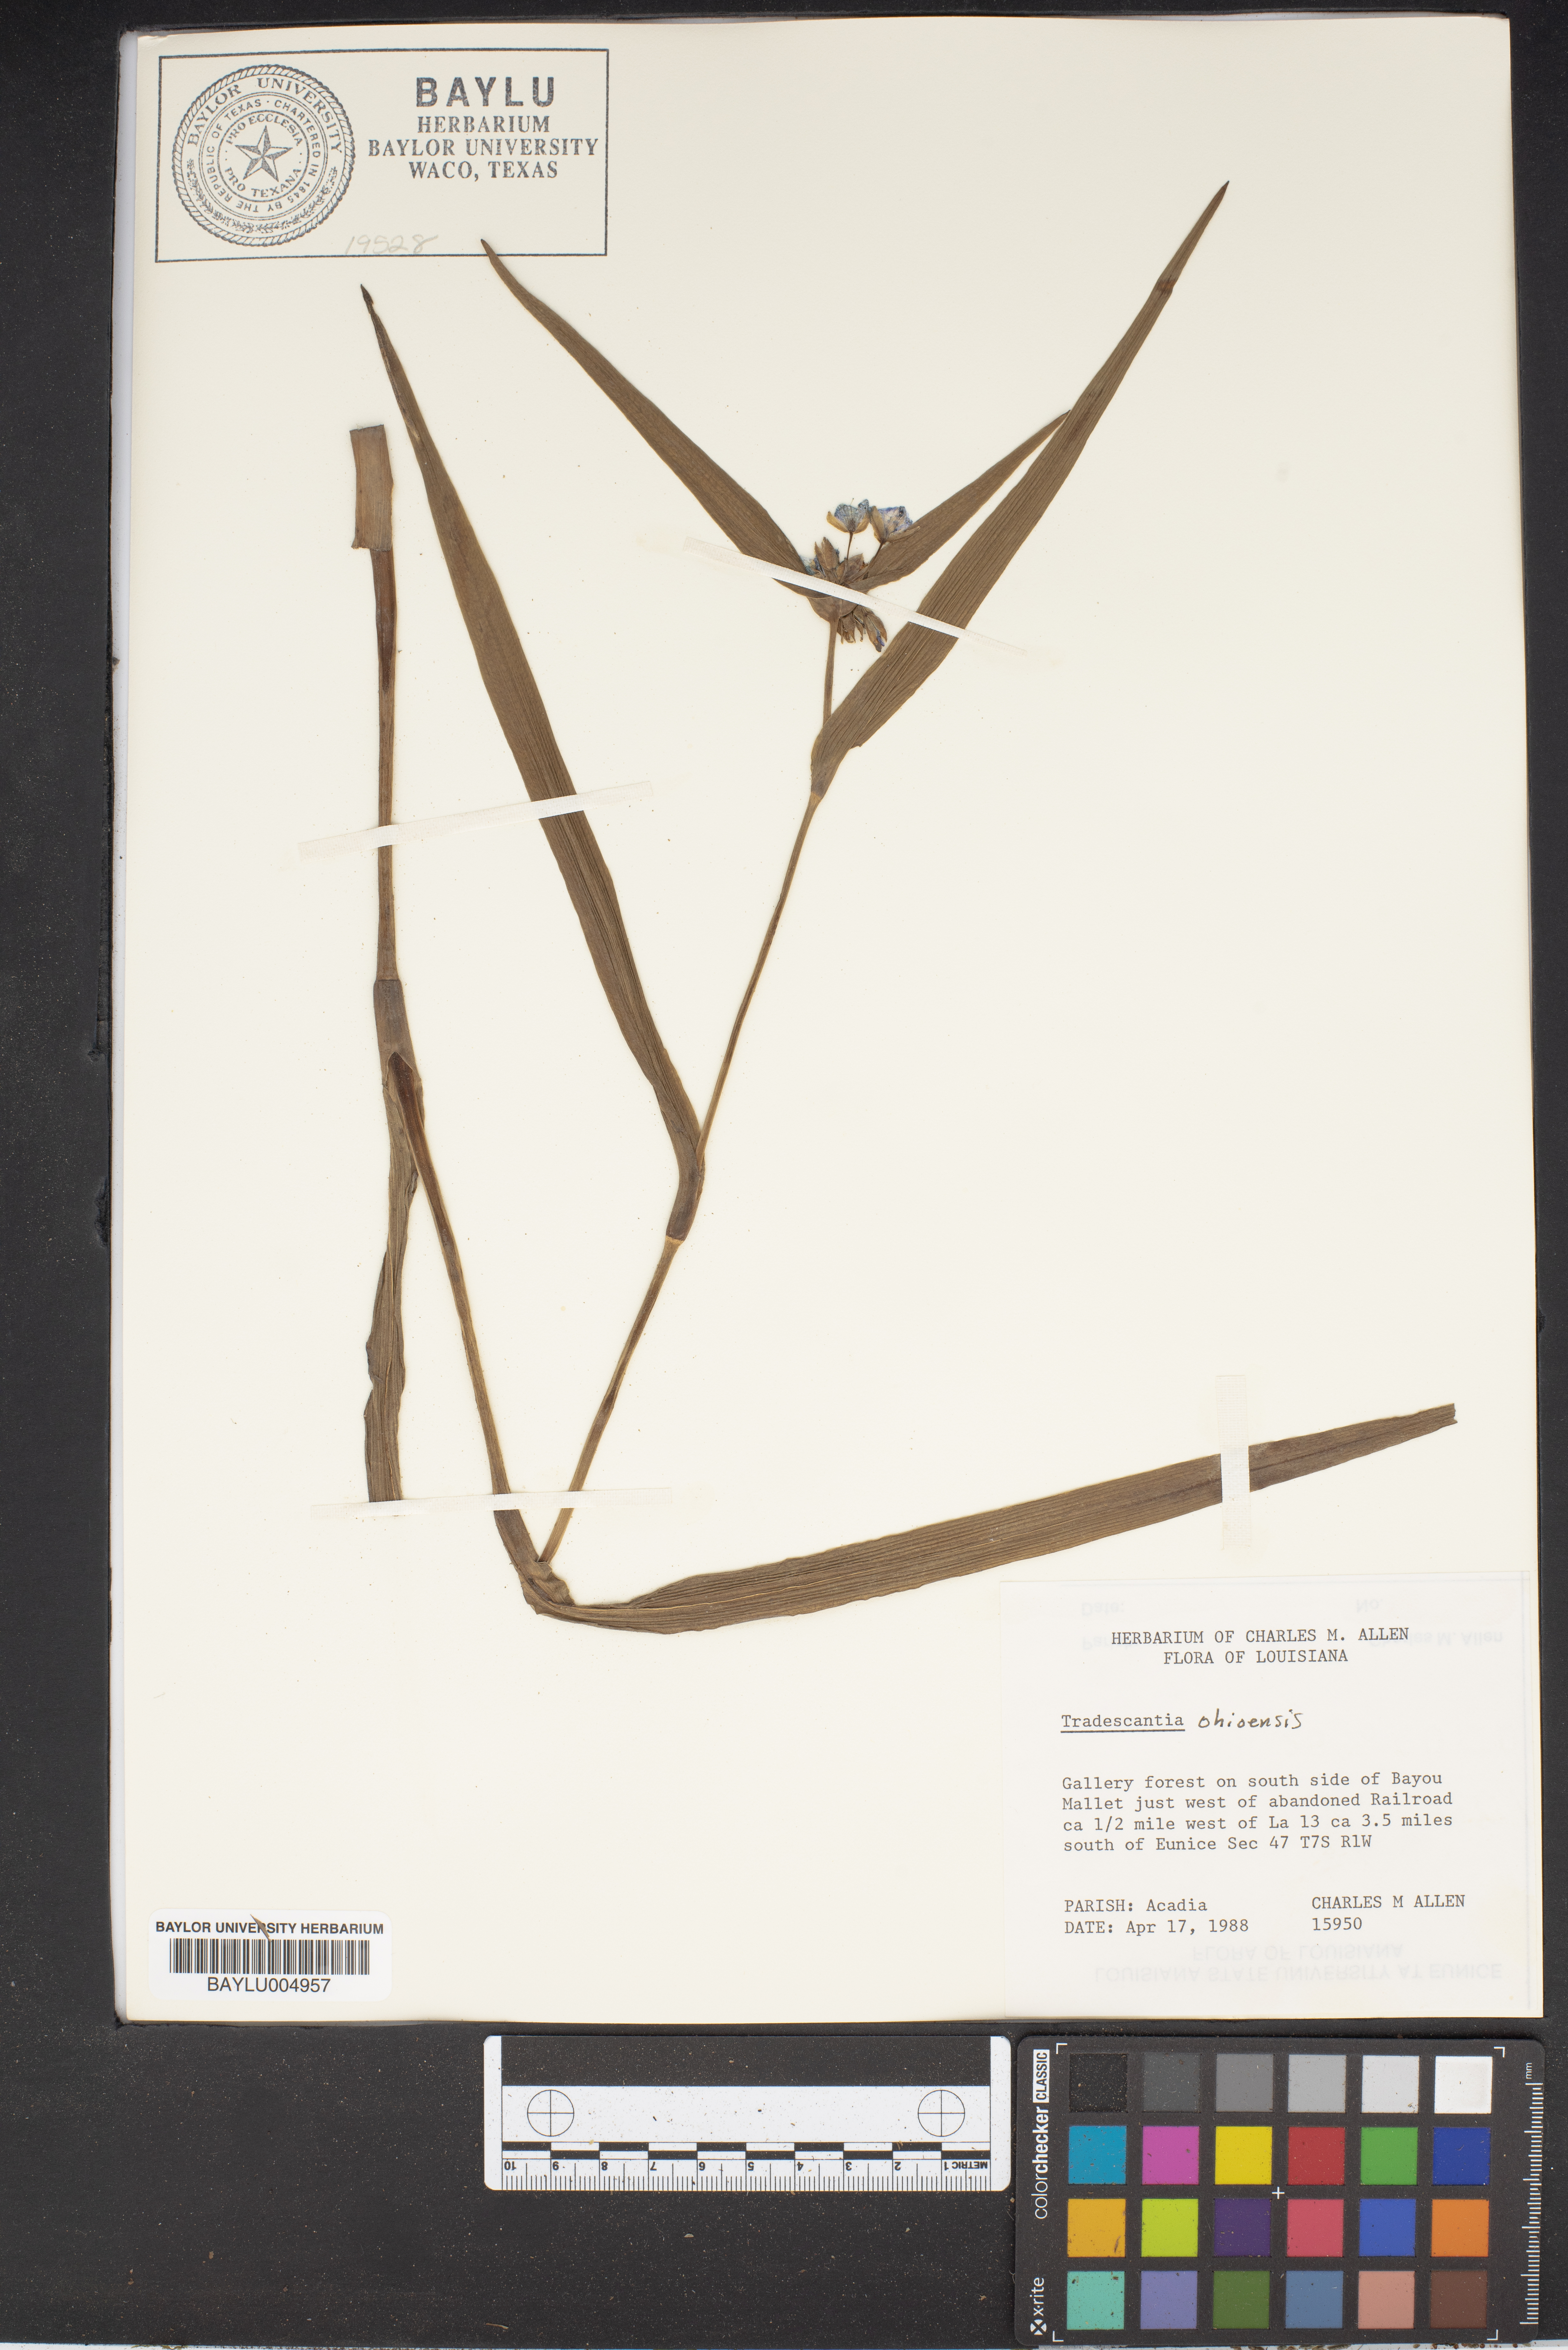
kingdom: Plantae
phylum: Tracheophyta
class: Liliopsida
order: Commelinales
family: Commelinaceae
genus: Tradescantia
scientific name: Tradescantia ohiensis
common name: Ohio spiderwort
